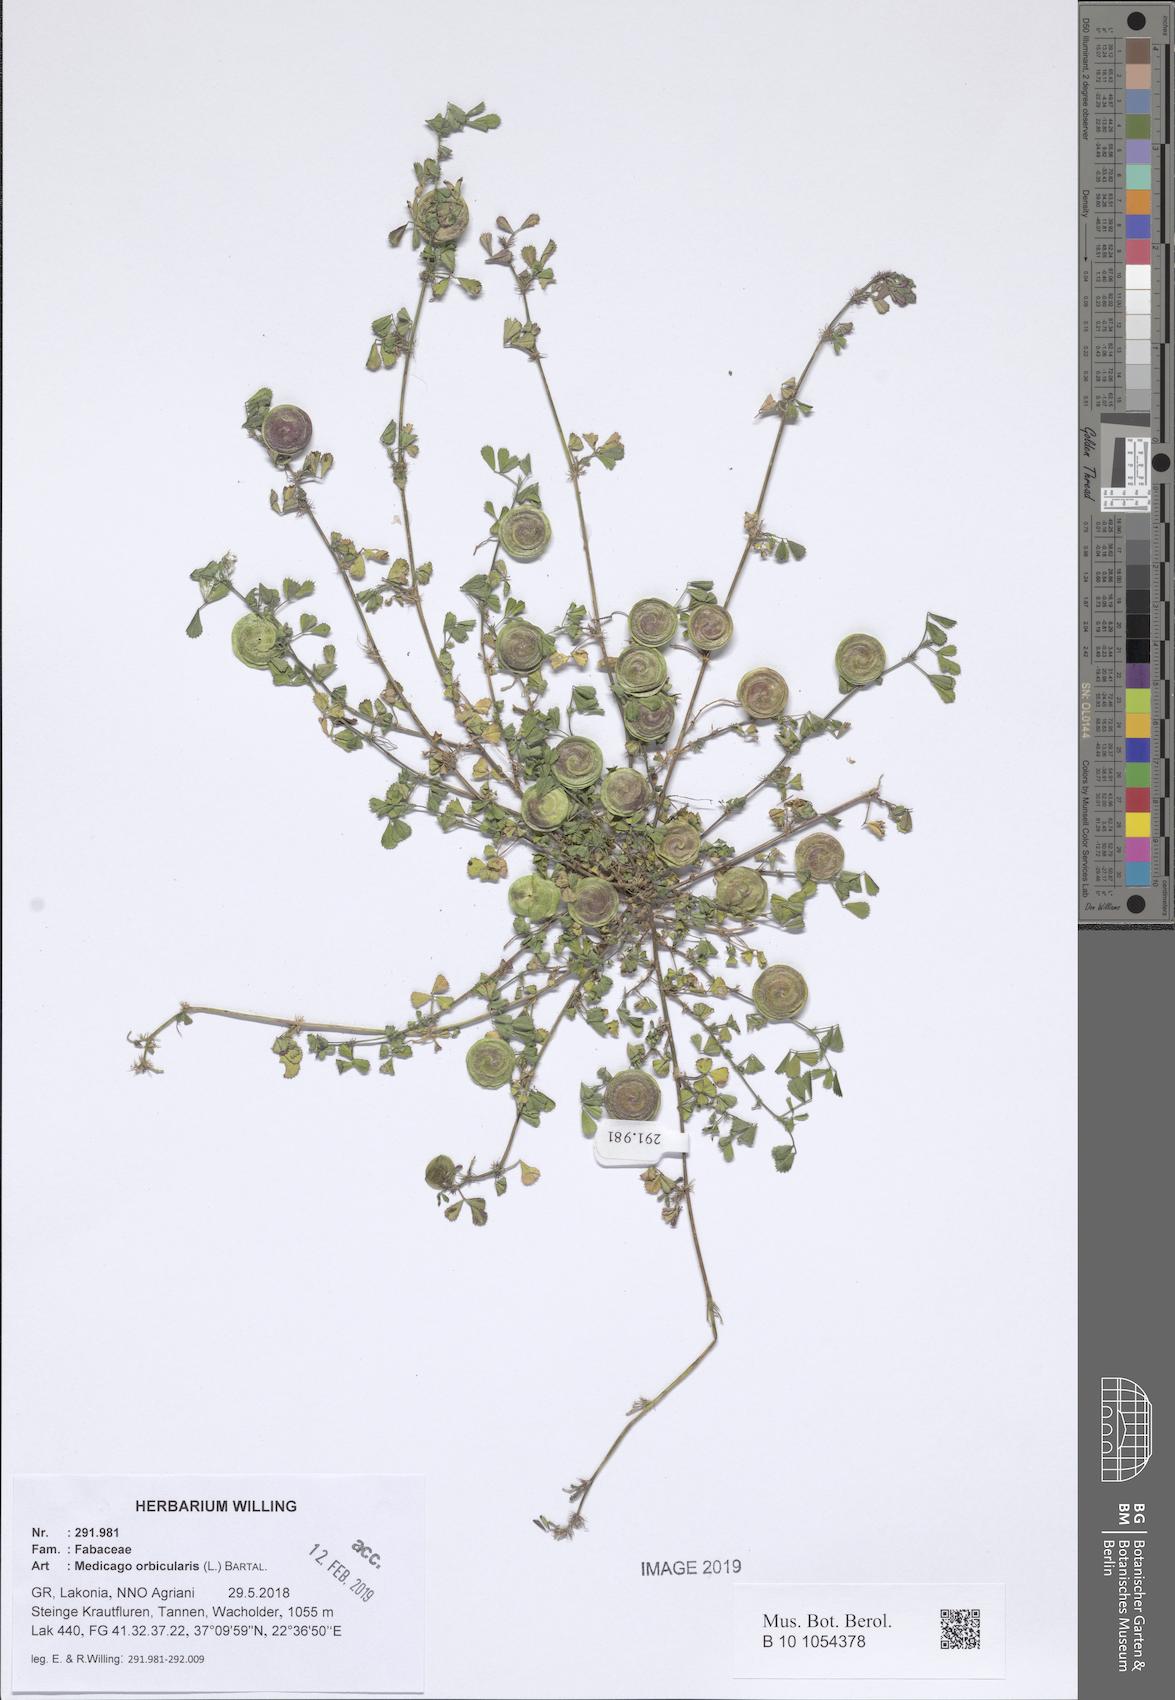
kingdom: Plantae
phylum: Tracheophyta
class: Magnoliopsida
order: Fabales
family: Fabaceae
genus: Medicago
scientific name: Medicago orbicularis
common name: Button medick
